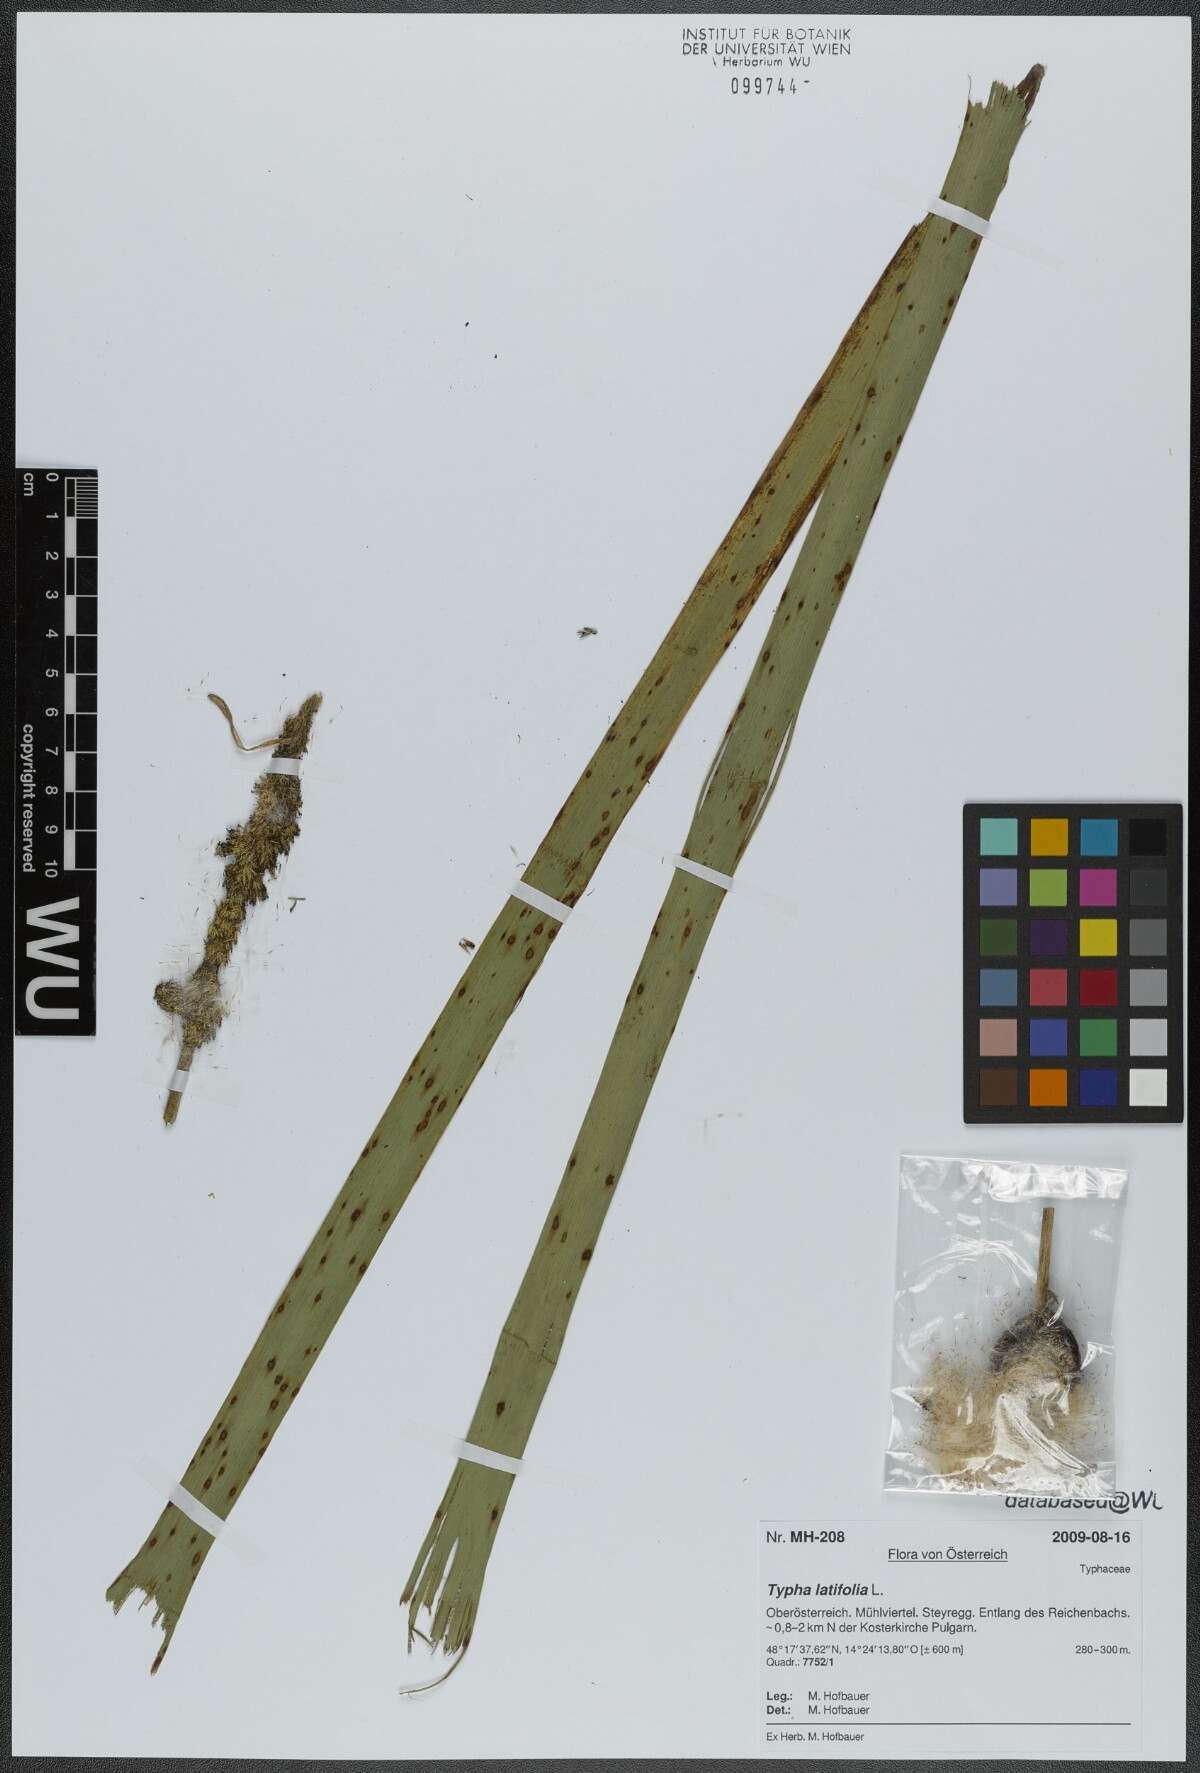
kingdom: Plantae
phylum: Tracheophyta
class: Liliopsida
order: Poales
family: Typhaceae
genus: Typha
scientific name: Typha latifolia
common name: Broadleaf cattail
